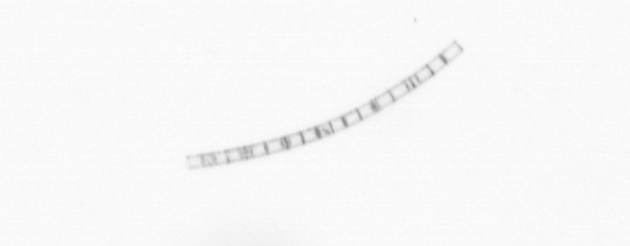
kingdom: Chromista
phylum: Ochrophyta
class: Bacillariophyceae
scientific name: Bacillariophyceae
